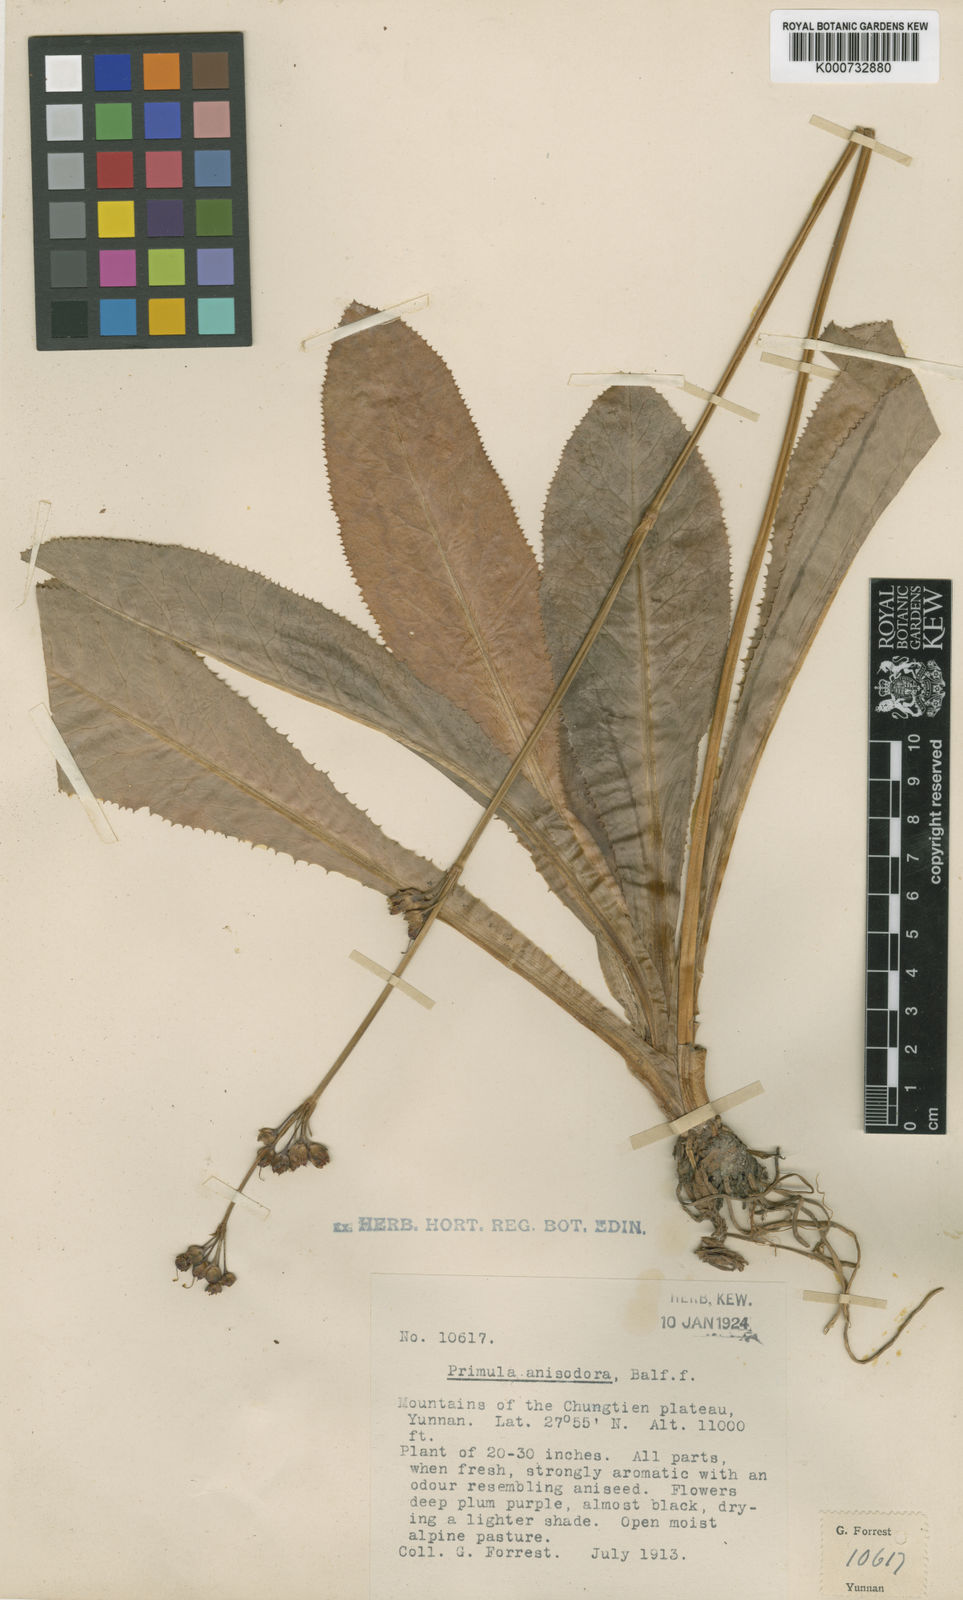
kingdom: Plantae
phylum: Tracheophyta
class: Magnoliopsida
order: Ericales
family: Primulaceae
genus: Primula
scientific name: Primula anisodora
